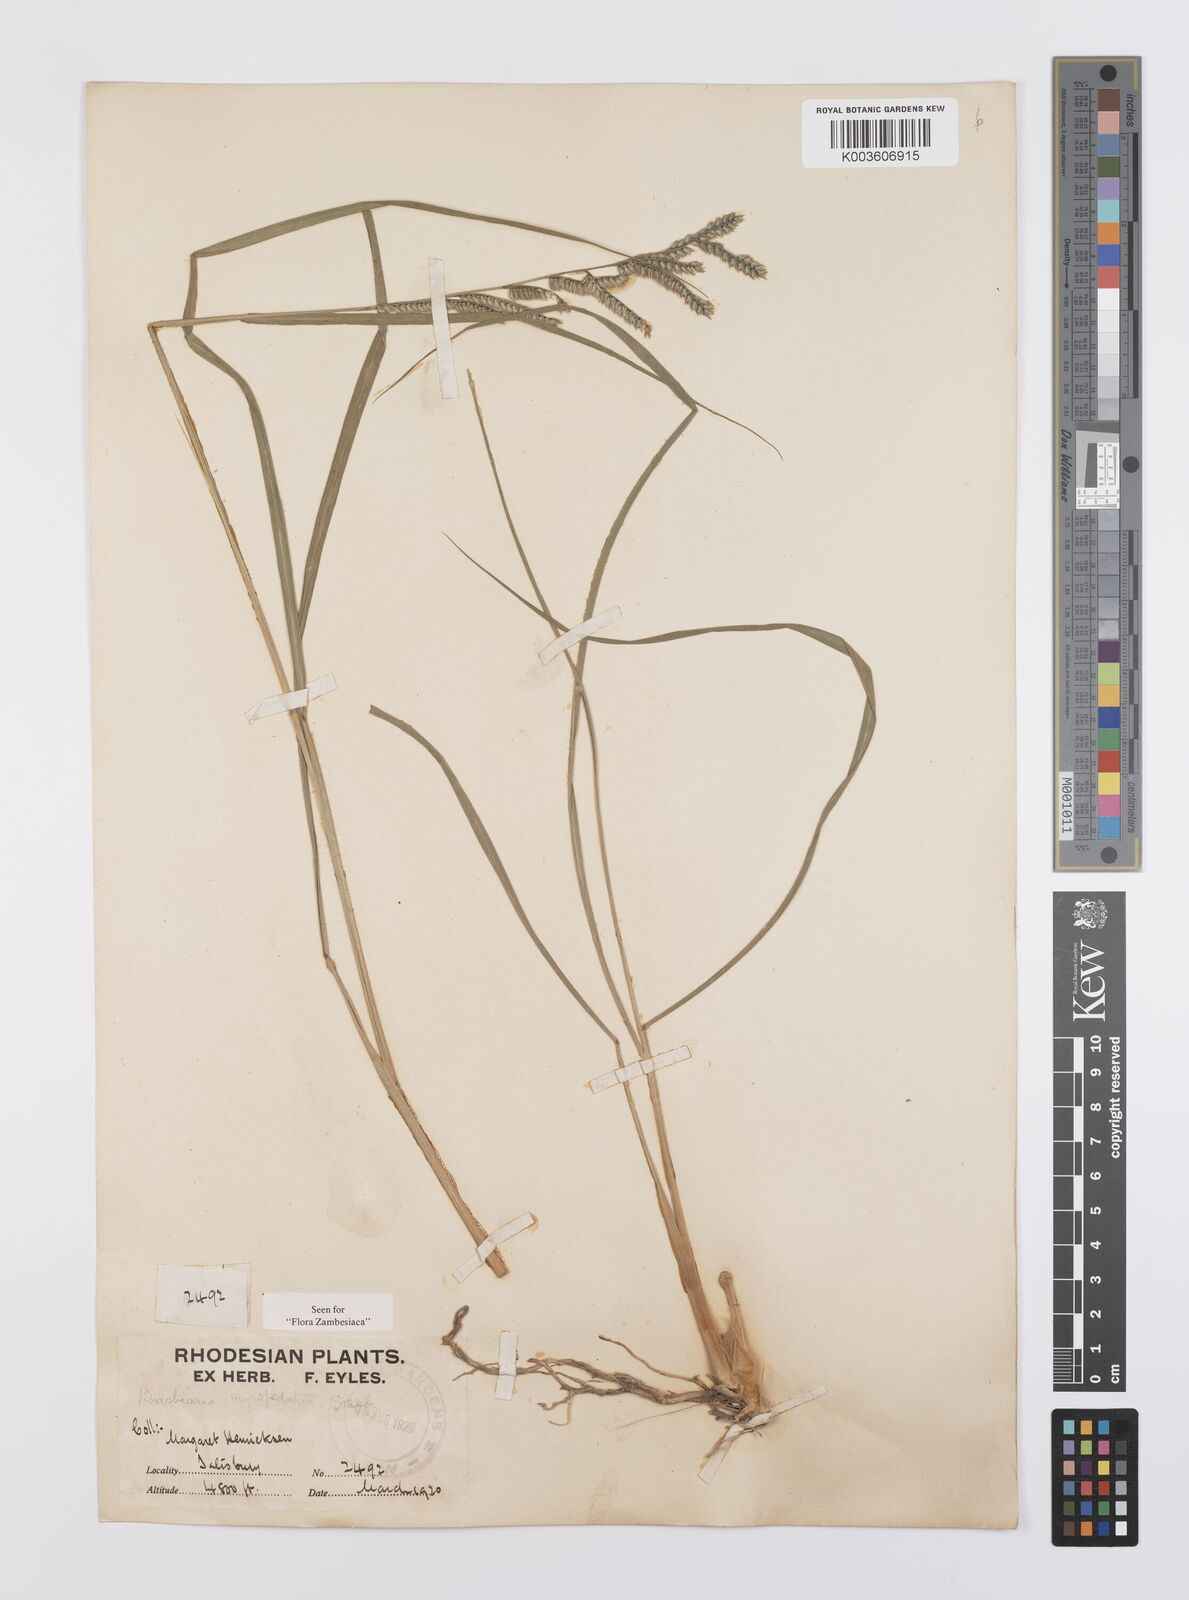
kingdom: Plantae
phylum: Tracheophyta
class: Liliopsida
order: Poales
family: Poaceae
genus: Urochloa
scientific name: Urochloa nigropedata
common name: Spotted signal grass
